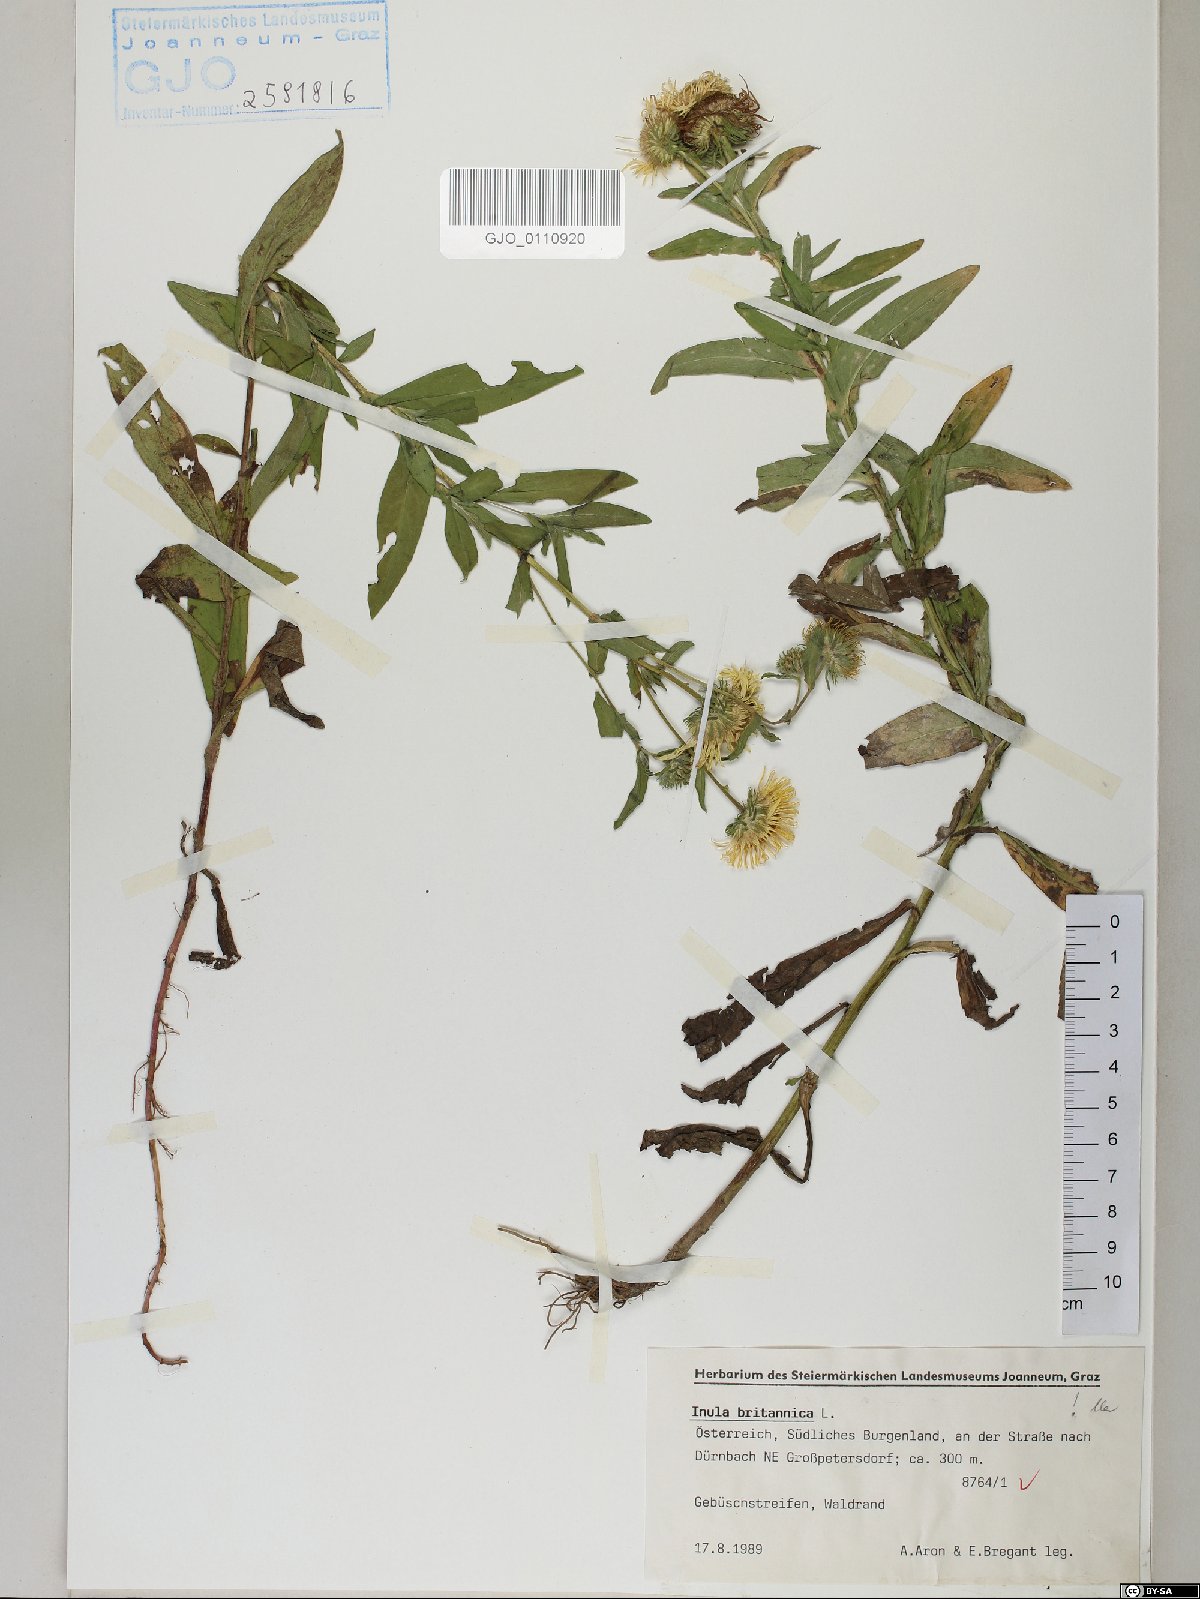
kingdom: Plantae
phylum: Tracheophyta
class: Magnoliopsida
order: Asterales
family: Asteraceae
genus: Pentanema
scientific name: Pentanema britannicum
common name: British elecampane
